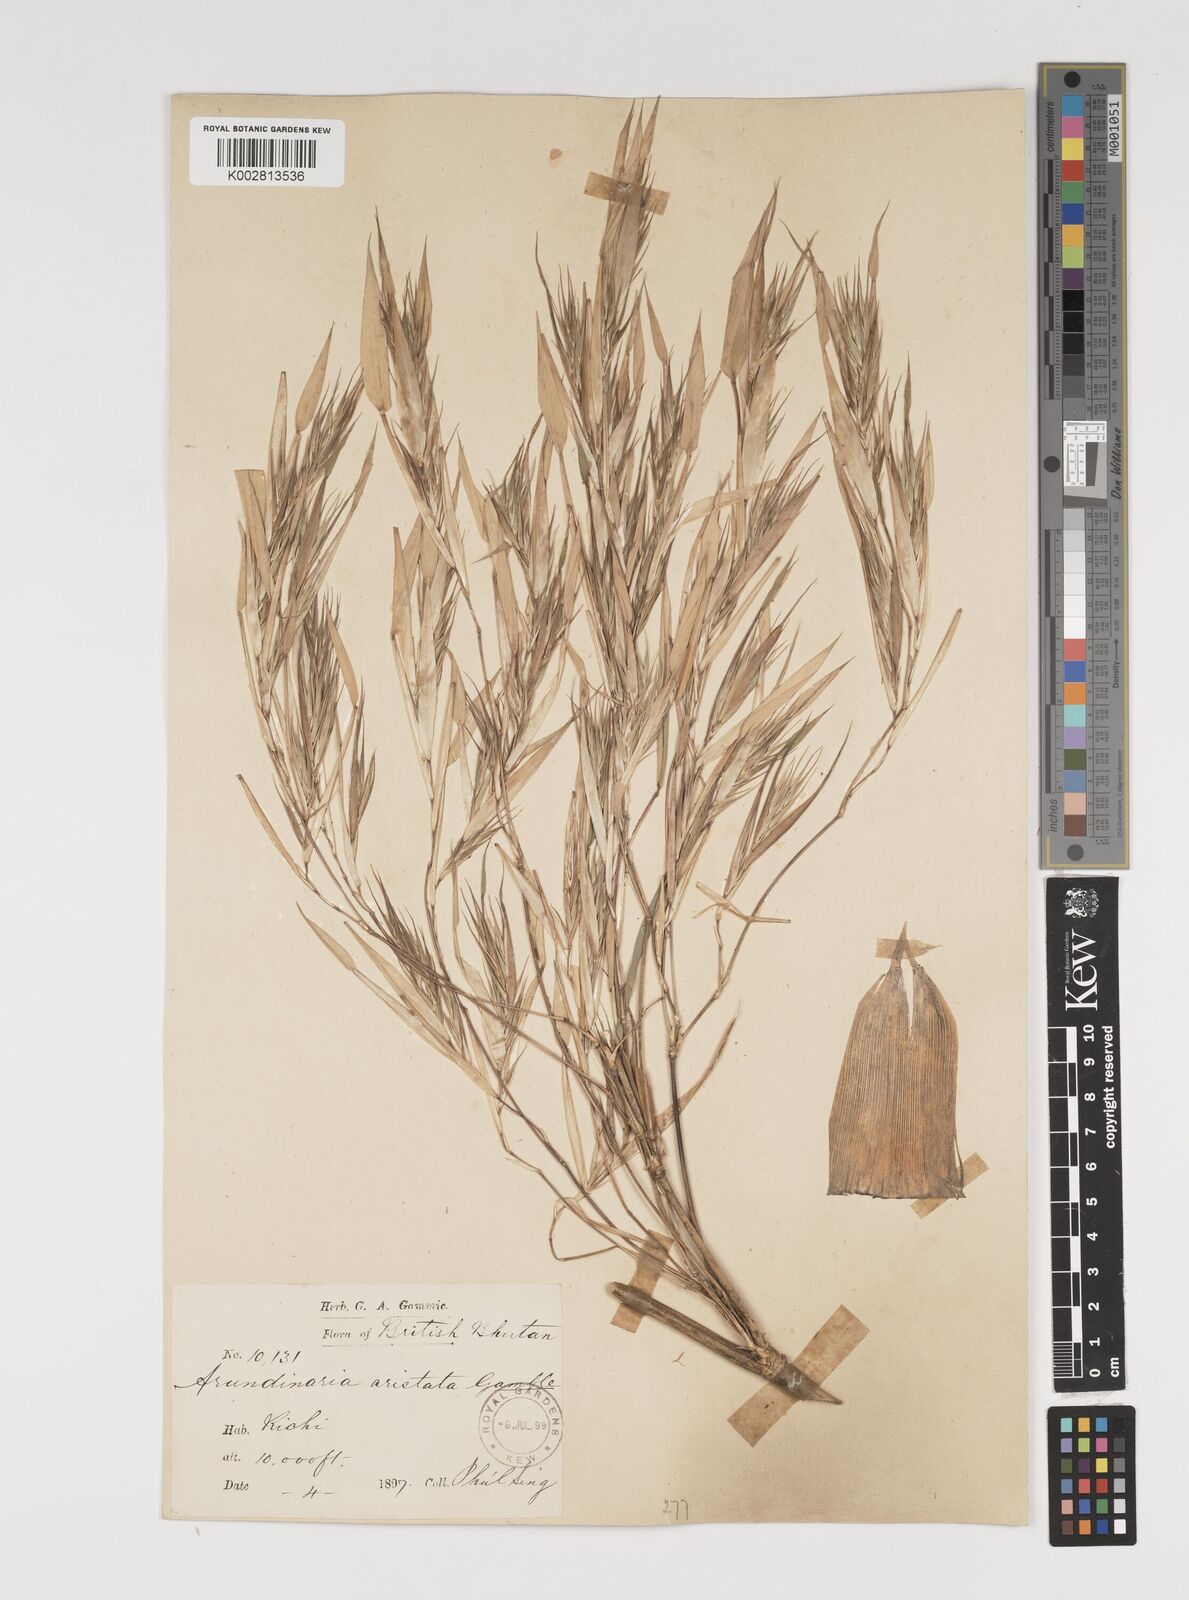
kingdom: Plantae
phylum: Tracheophyta
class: Liliopsida
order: Poales
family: Poaceae
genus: Thamnocalamus
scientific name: Thamnocalamus spathiflorus
